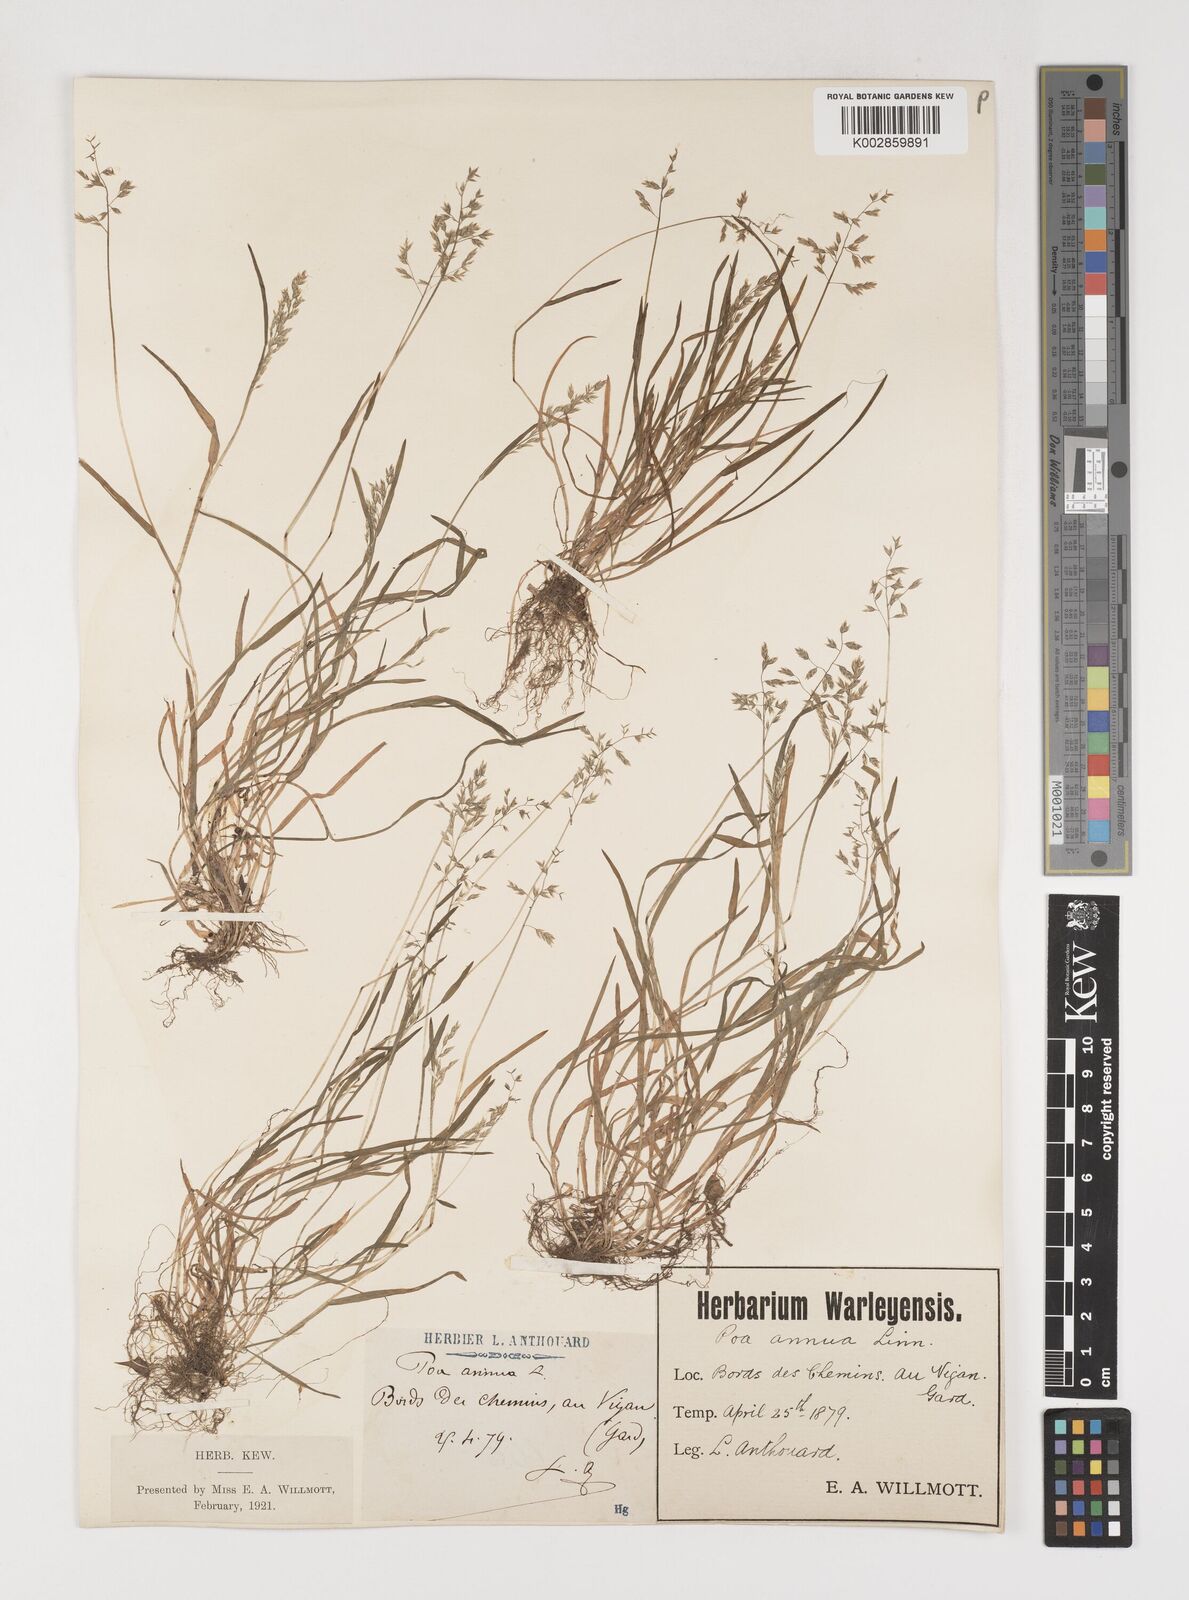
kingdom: Plantae
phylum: Tracheophyta
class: Liliopsida
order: Poales
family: Poaceae
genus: Poa
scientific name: Poa annua
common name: Annual bluegrass
